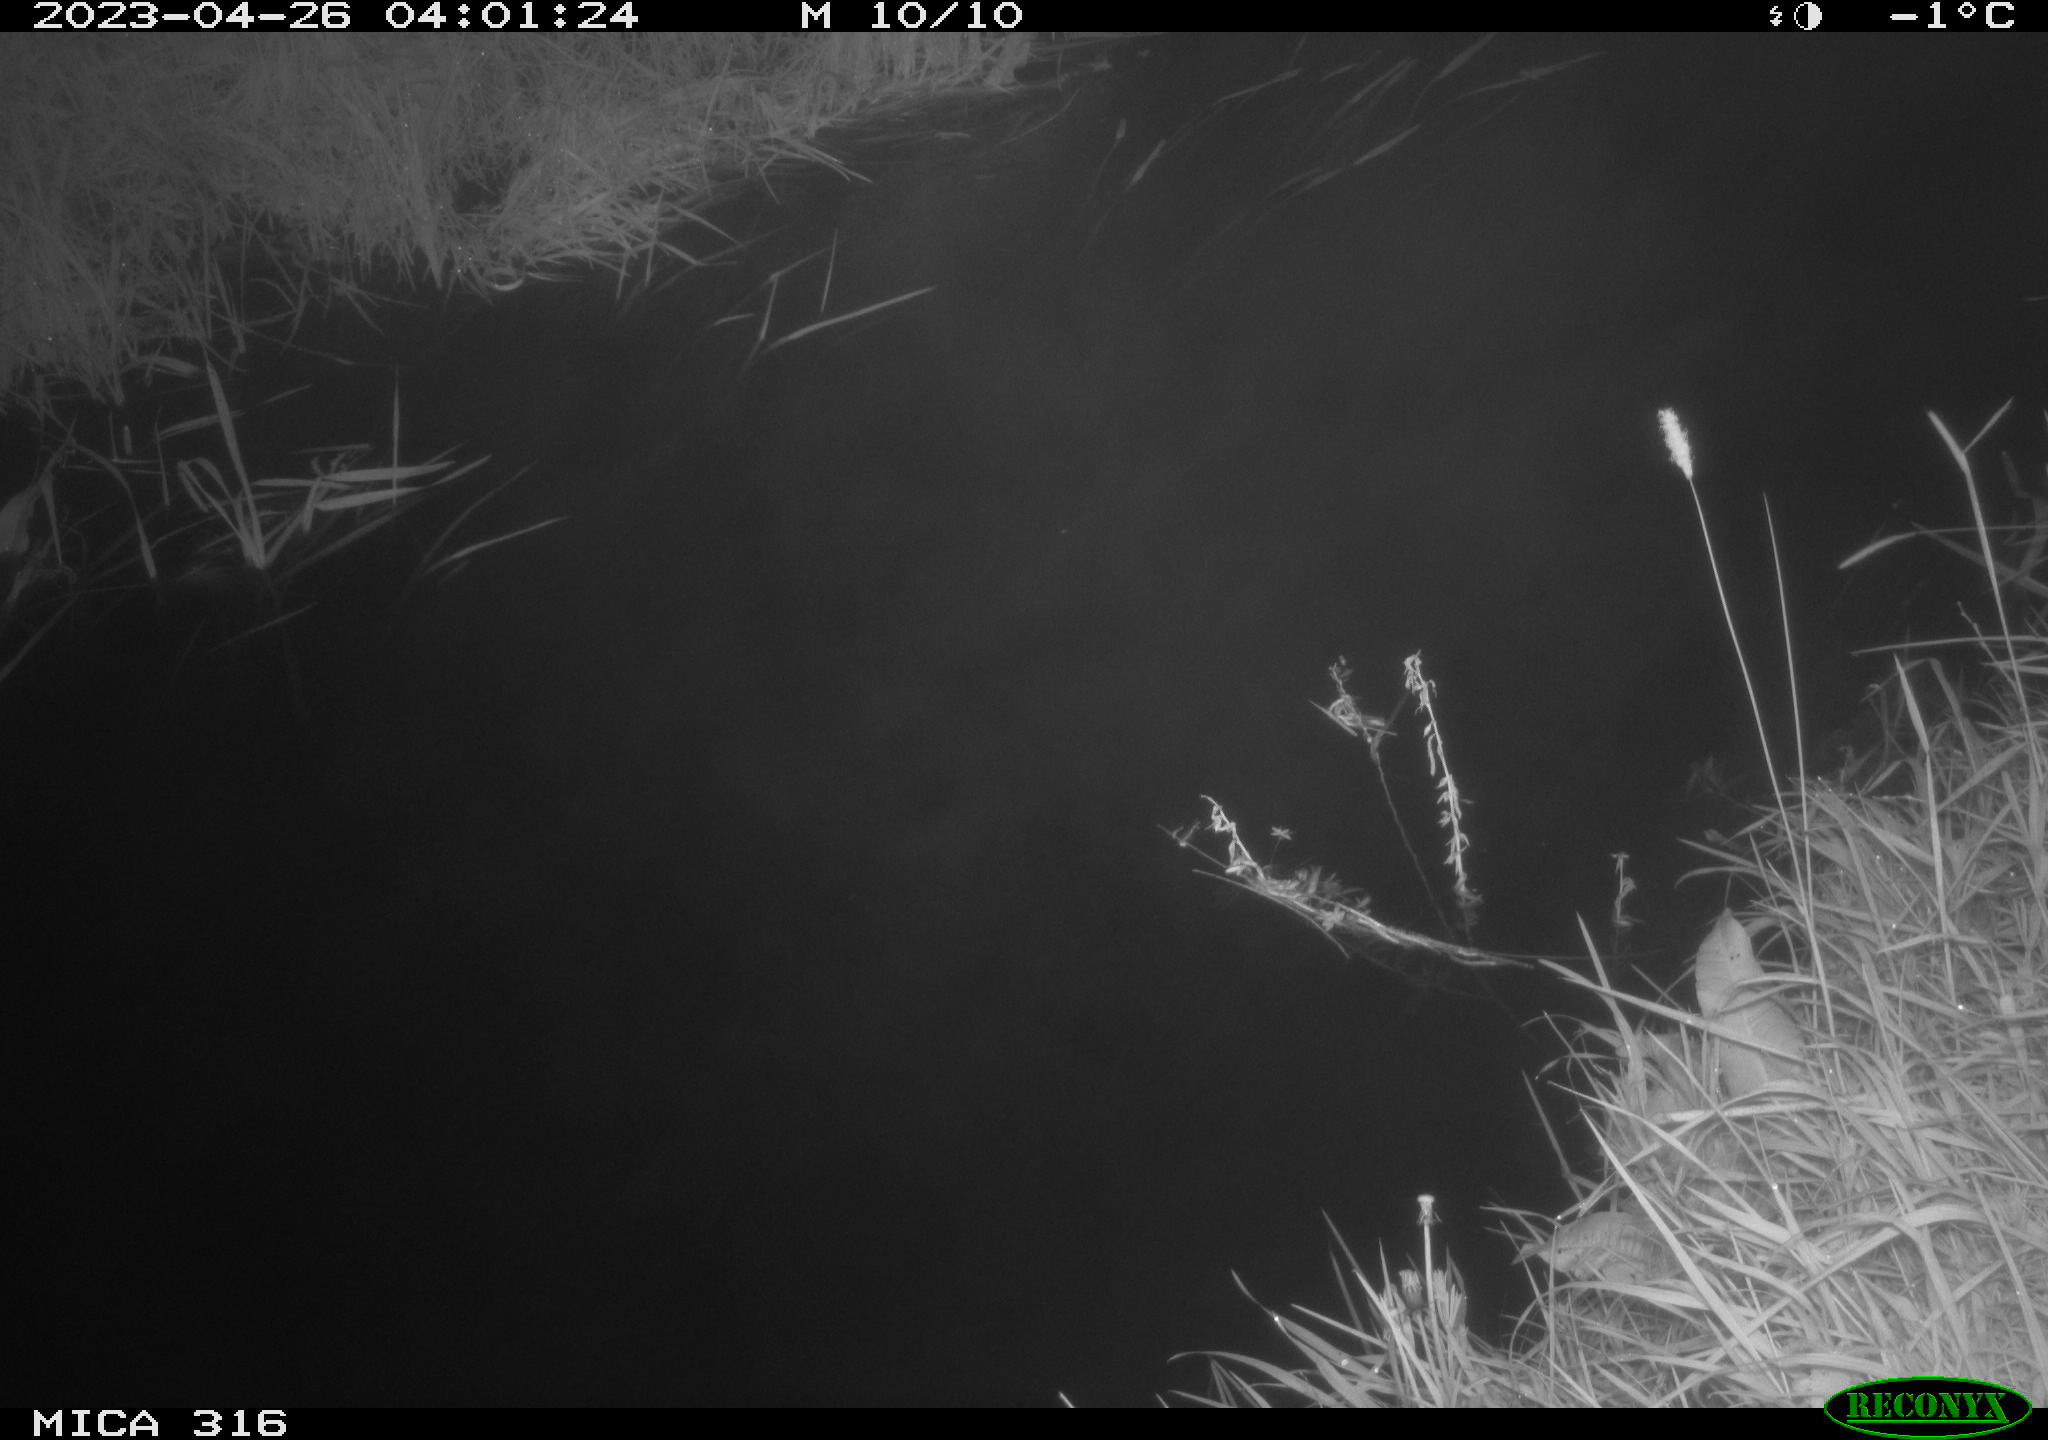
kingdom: Animalia
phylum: Chordata
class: Aves
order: Anseriformes
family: Anatidae
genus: Anas
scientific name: Anas
